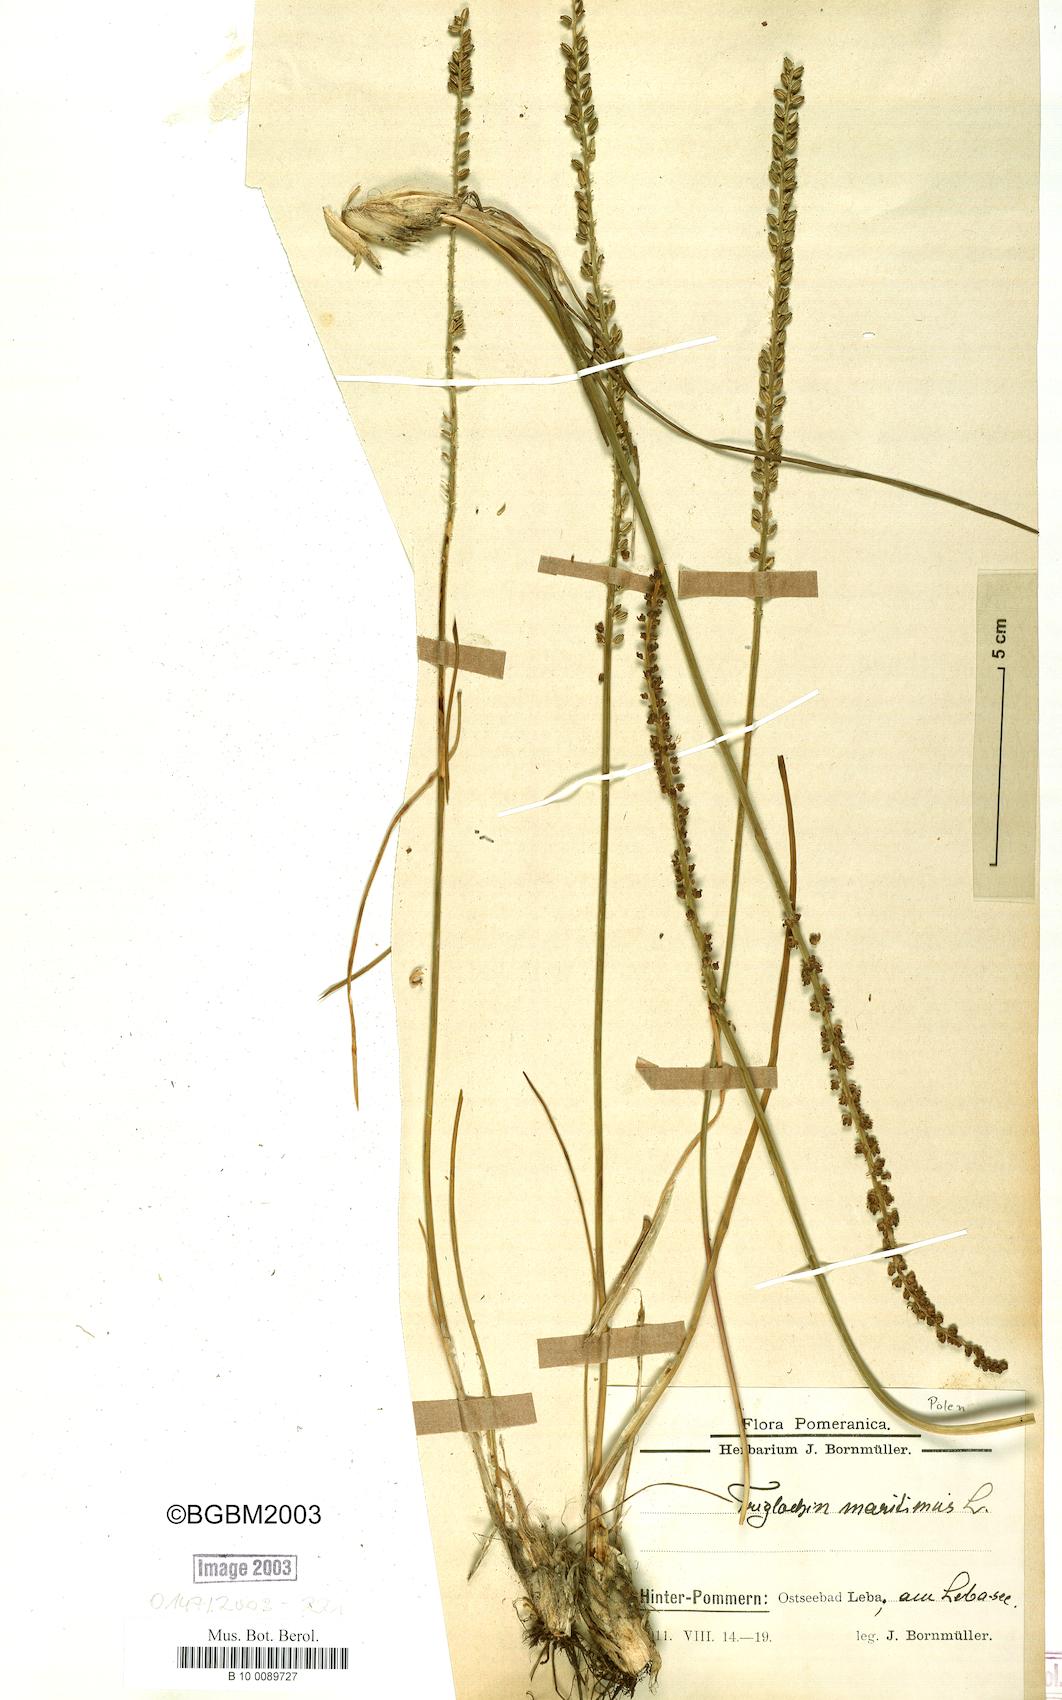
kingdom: Plantae
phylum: Tracheophyta
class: Liliopsida
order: Alismatales
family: Juncaginaceae
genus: Triglochin
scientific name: Triglochin maritima
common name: Sea arrowgrass
